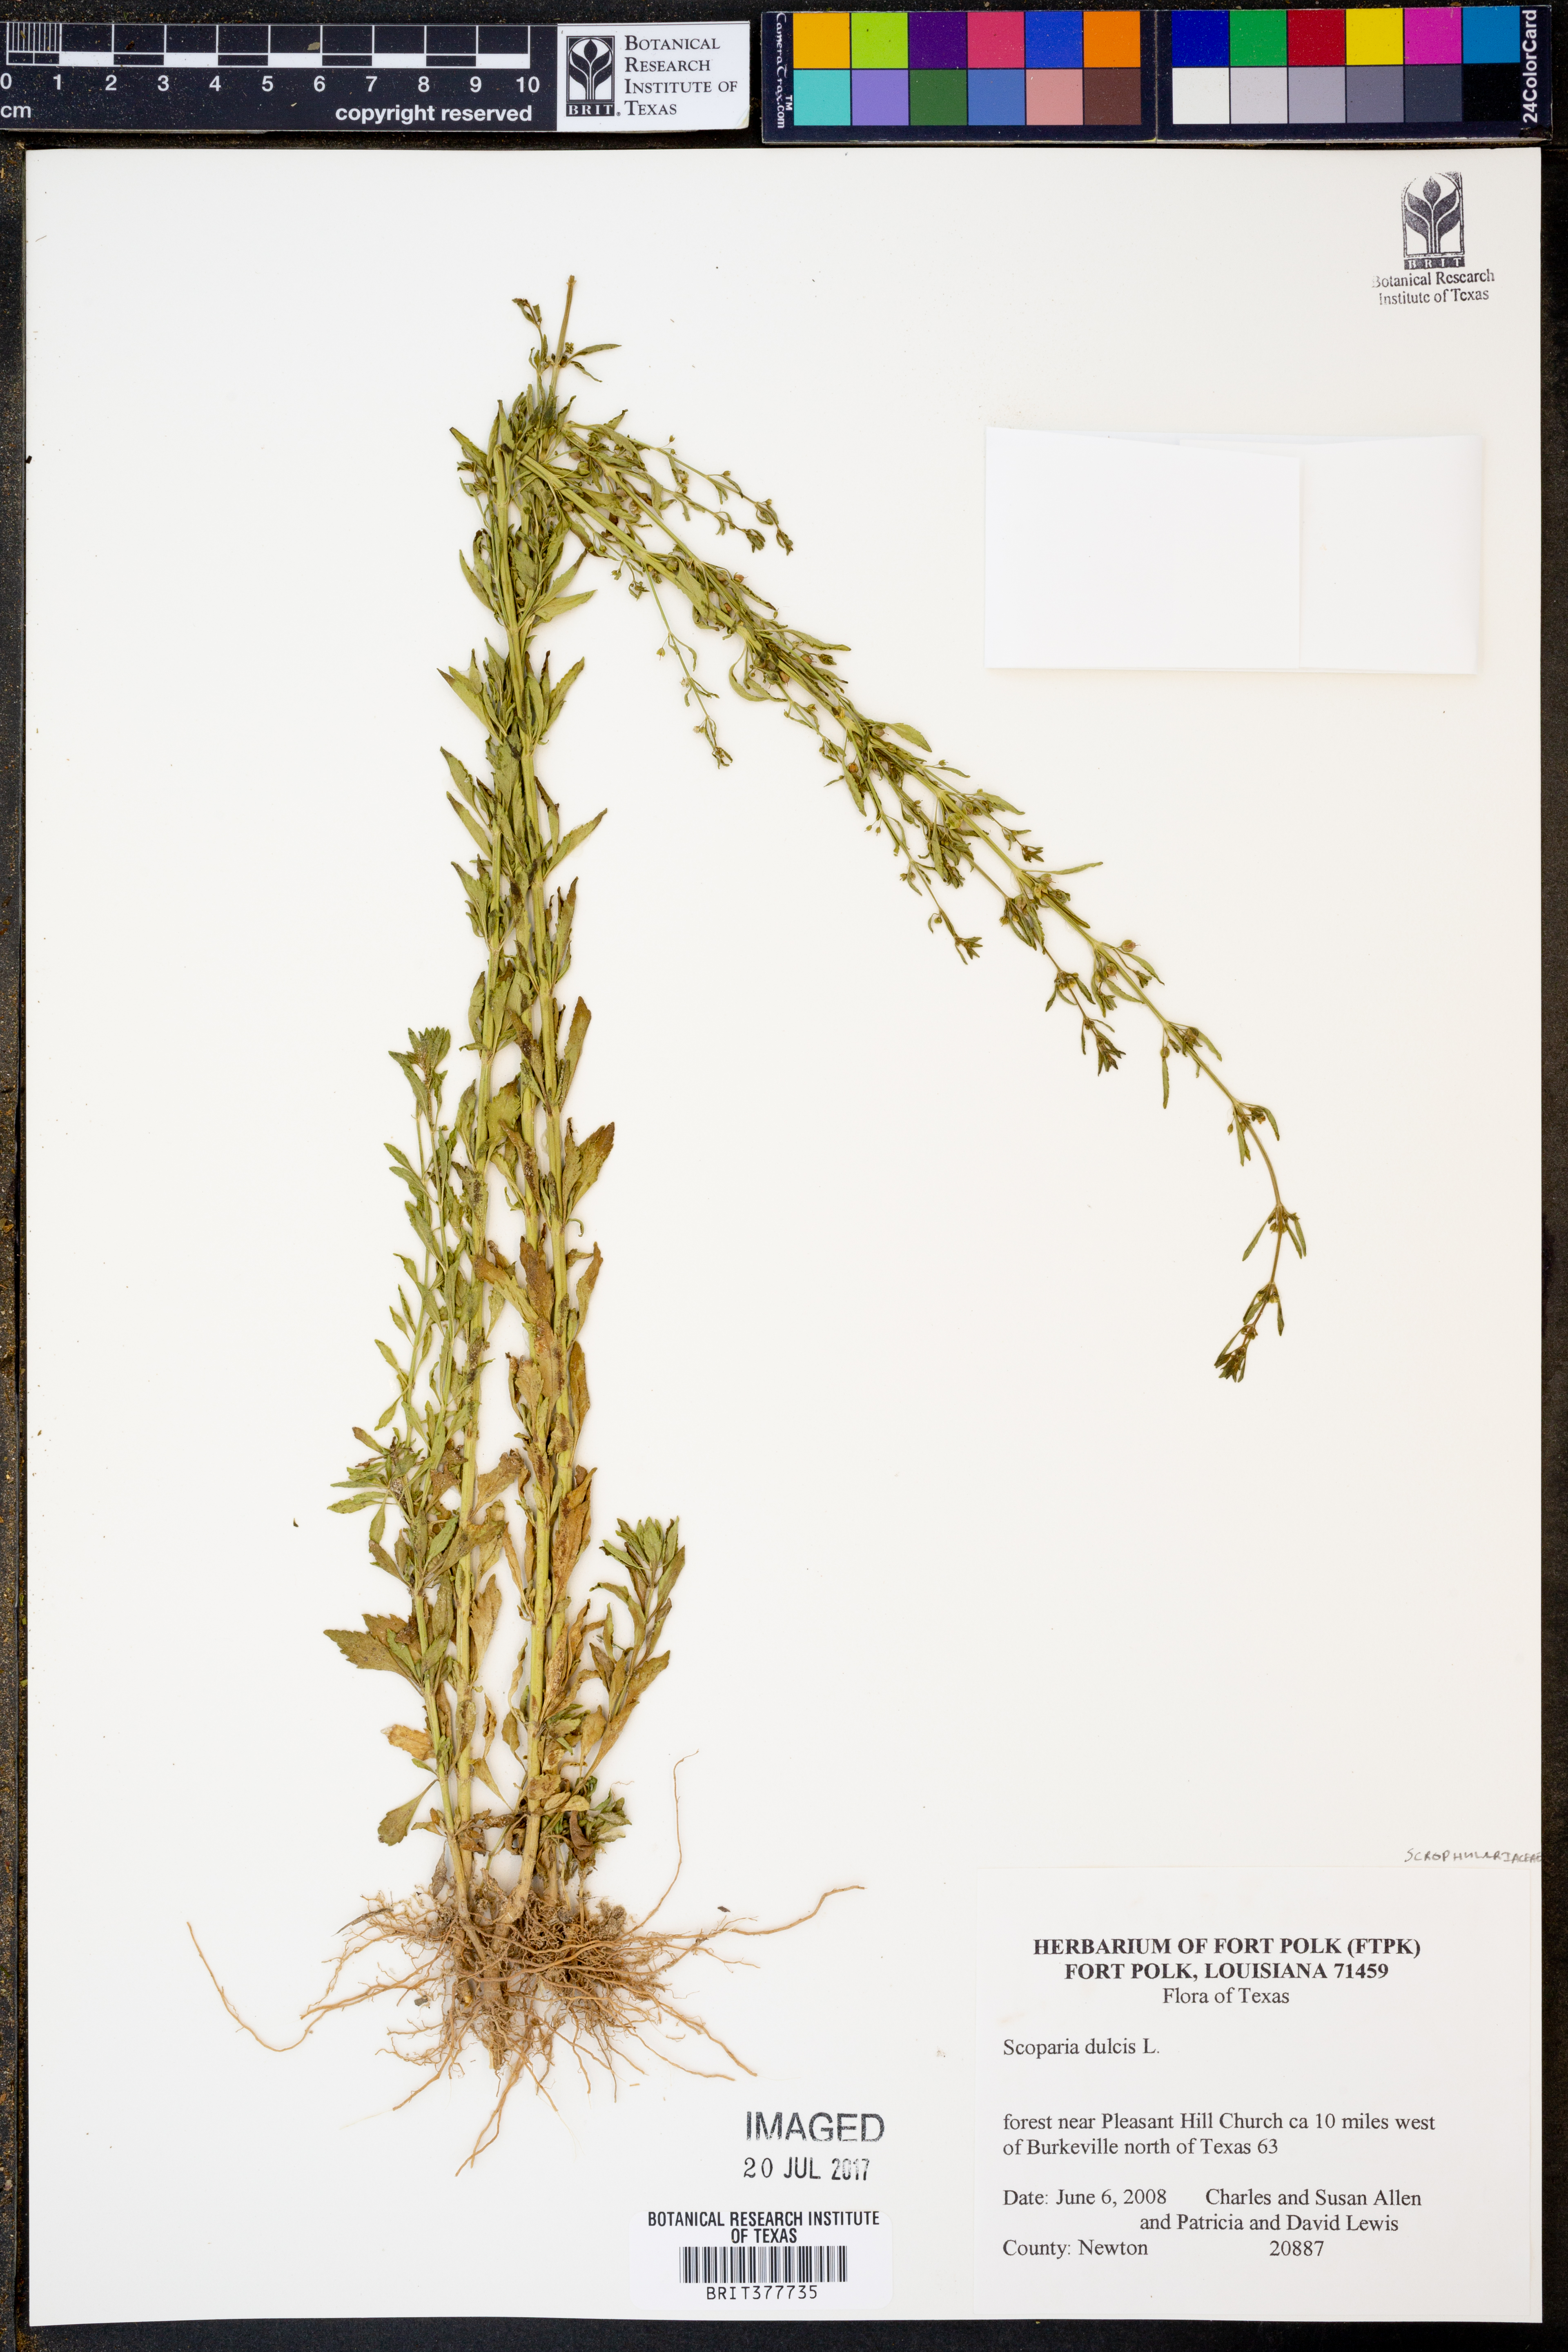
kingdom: Plantae
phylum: Tracheophyta
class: Magnoliopsida
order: Lamiales
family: Plantaginaceae
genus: Scoparia
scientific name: Scoparia dulcis
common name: Scoparia-weed
